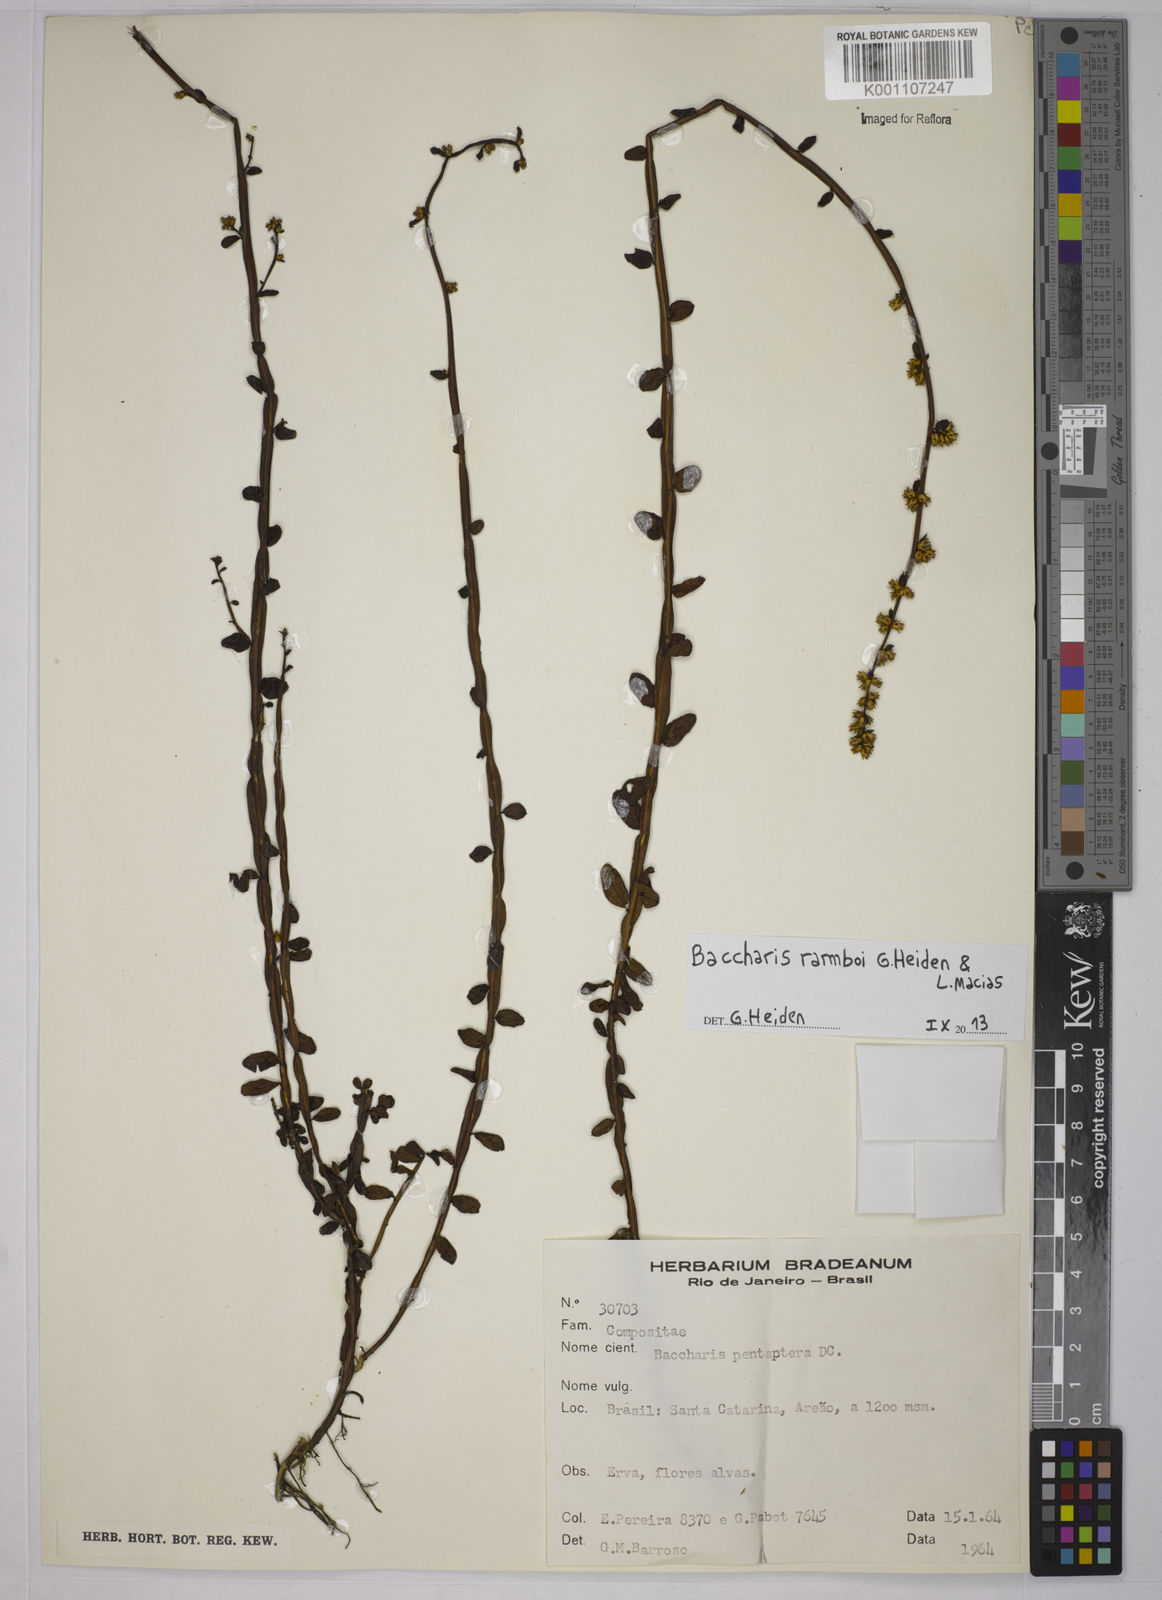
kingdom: Plantae
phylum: Tracheophyta
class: Magnoliopsida
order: Asterales
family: Asteraceae
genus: Baccharis
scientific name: Baccharis ramboi
